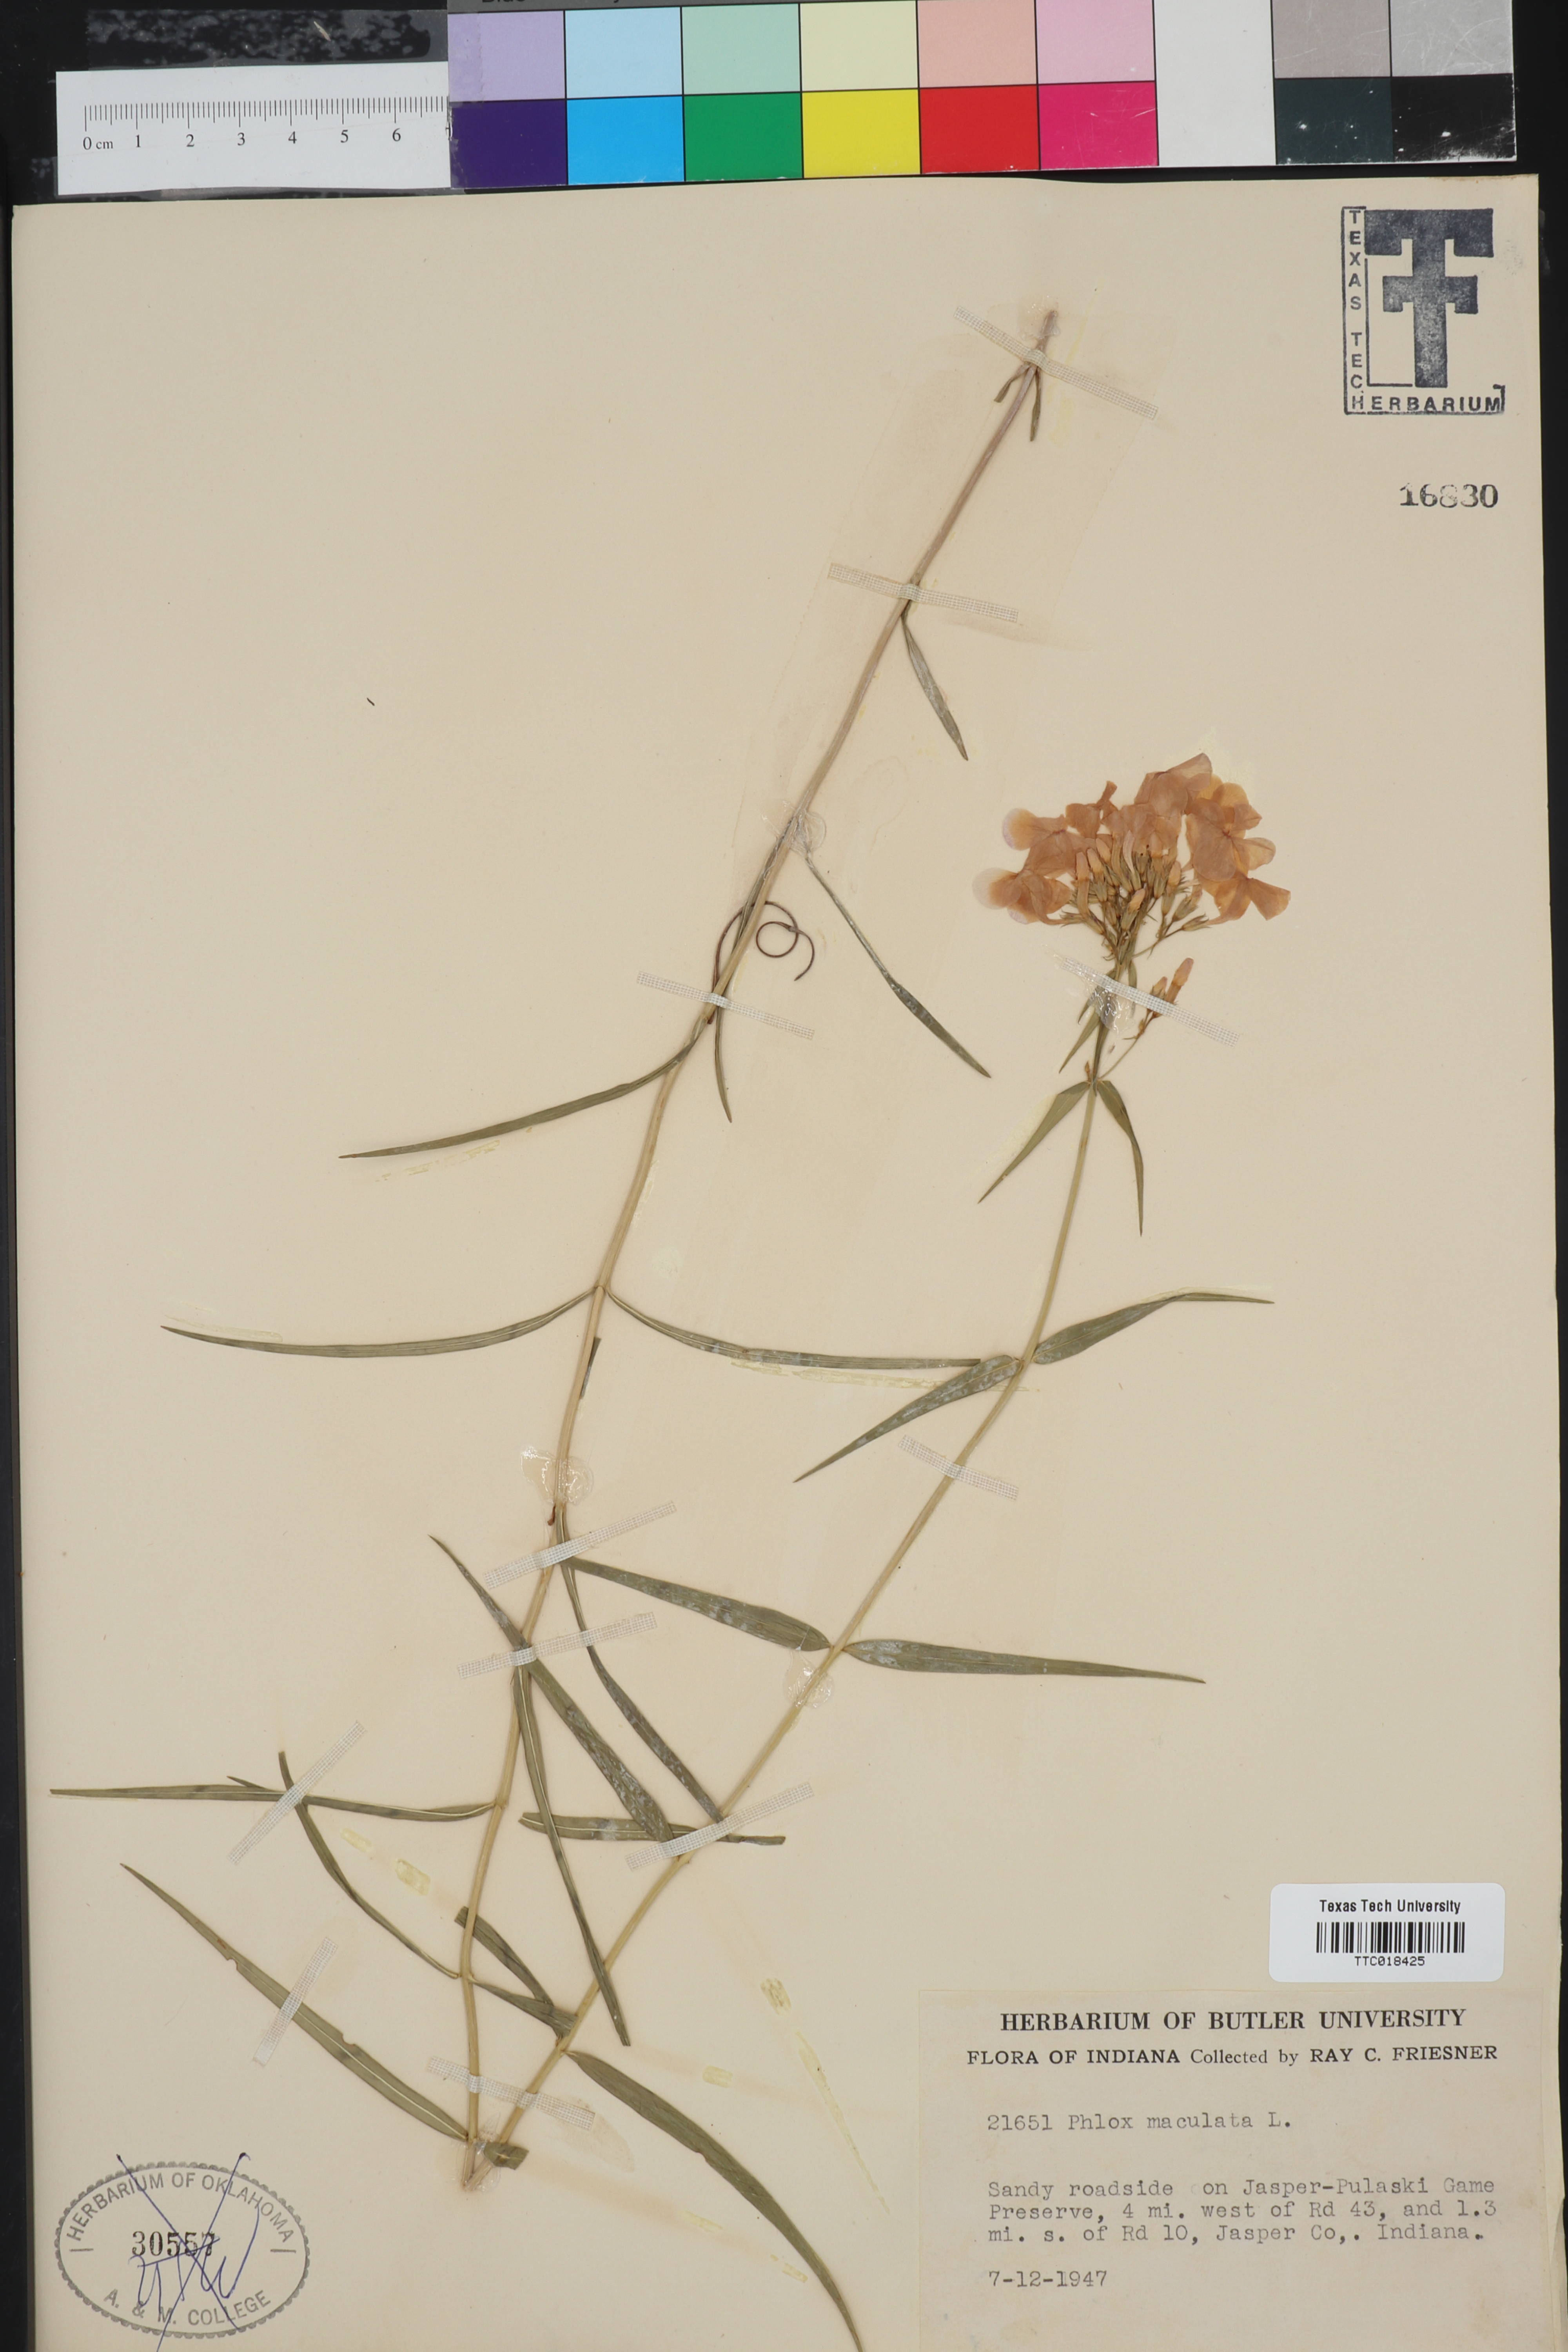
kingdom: Plantae
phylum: Tracheophyta
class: Magnoliopsida
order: Ericales
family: Polemoniaceae
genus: Phlox
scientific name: Phlox maculata
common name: Meadow phlox
